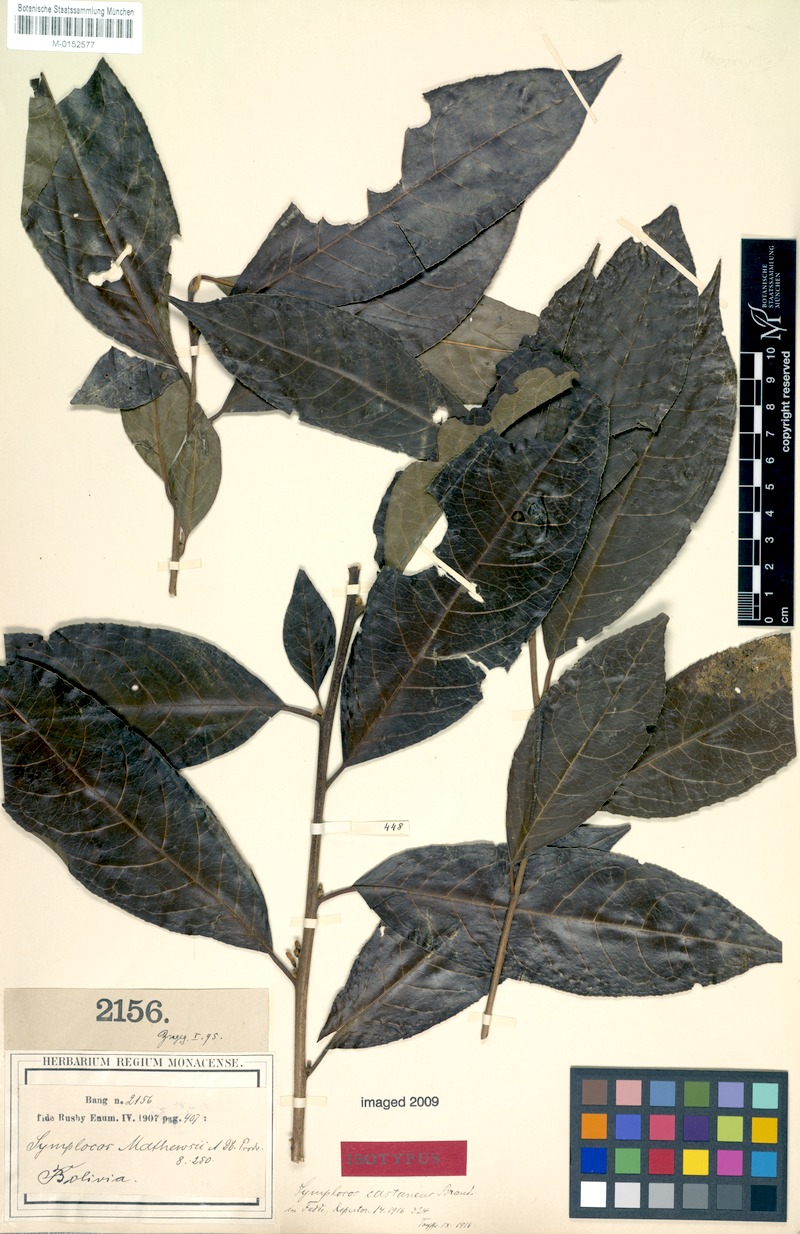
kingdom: Plantae
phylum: Tracheophyta
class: Magnoliopsida
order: Ericales
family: Symplocaceae
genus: Symplocos
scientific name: Symplocos arechea
